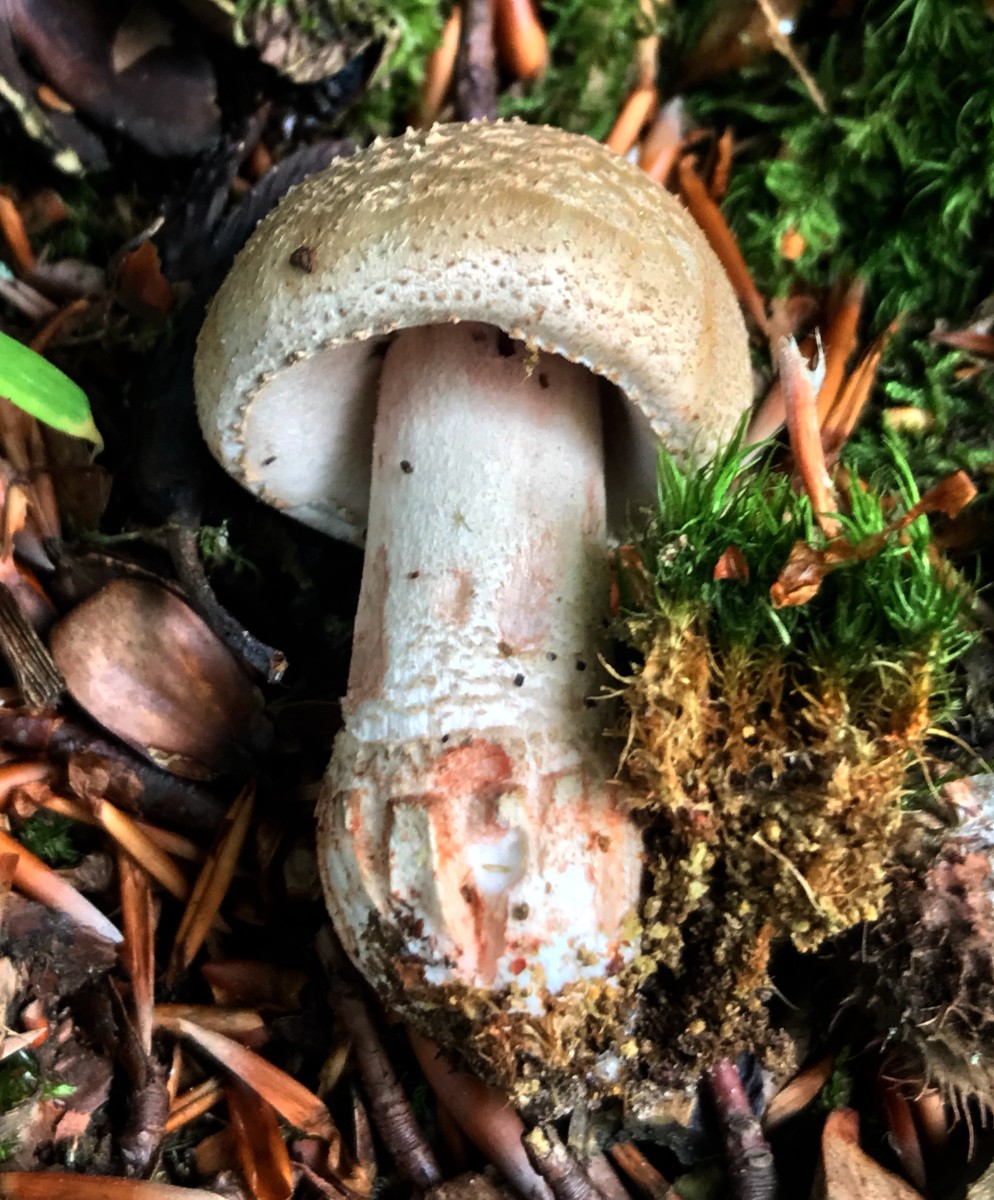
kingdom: Fungi
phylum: Basidiomycota
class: Agaricomycetes
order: Agaricales
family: Amanitaceae
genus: Amanita
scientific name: Amanita rubescens
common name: rødmende fluesvamp
